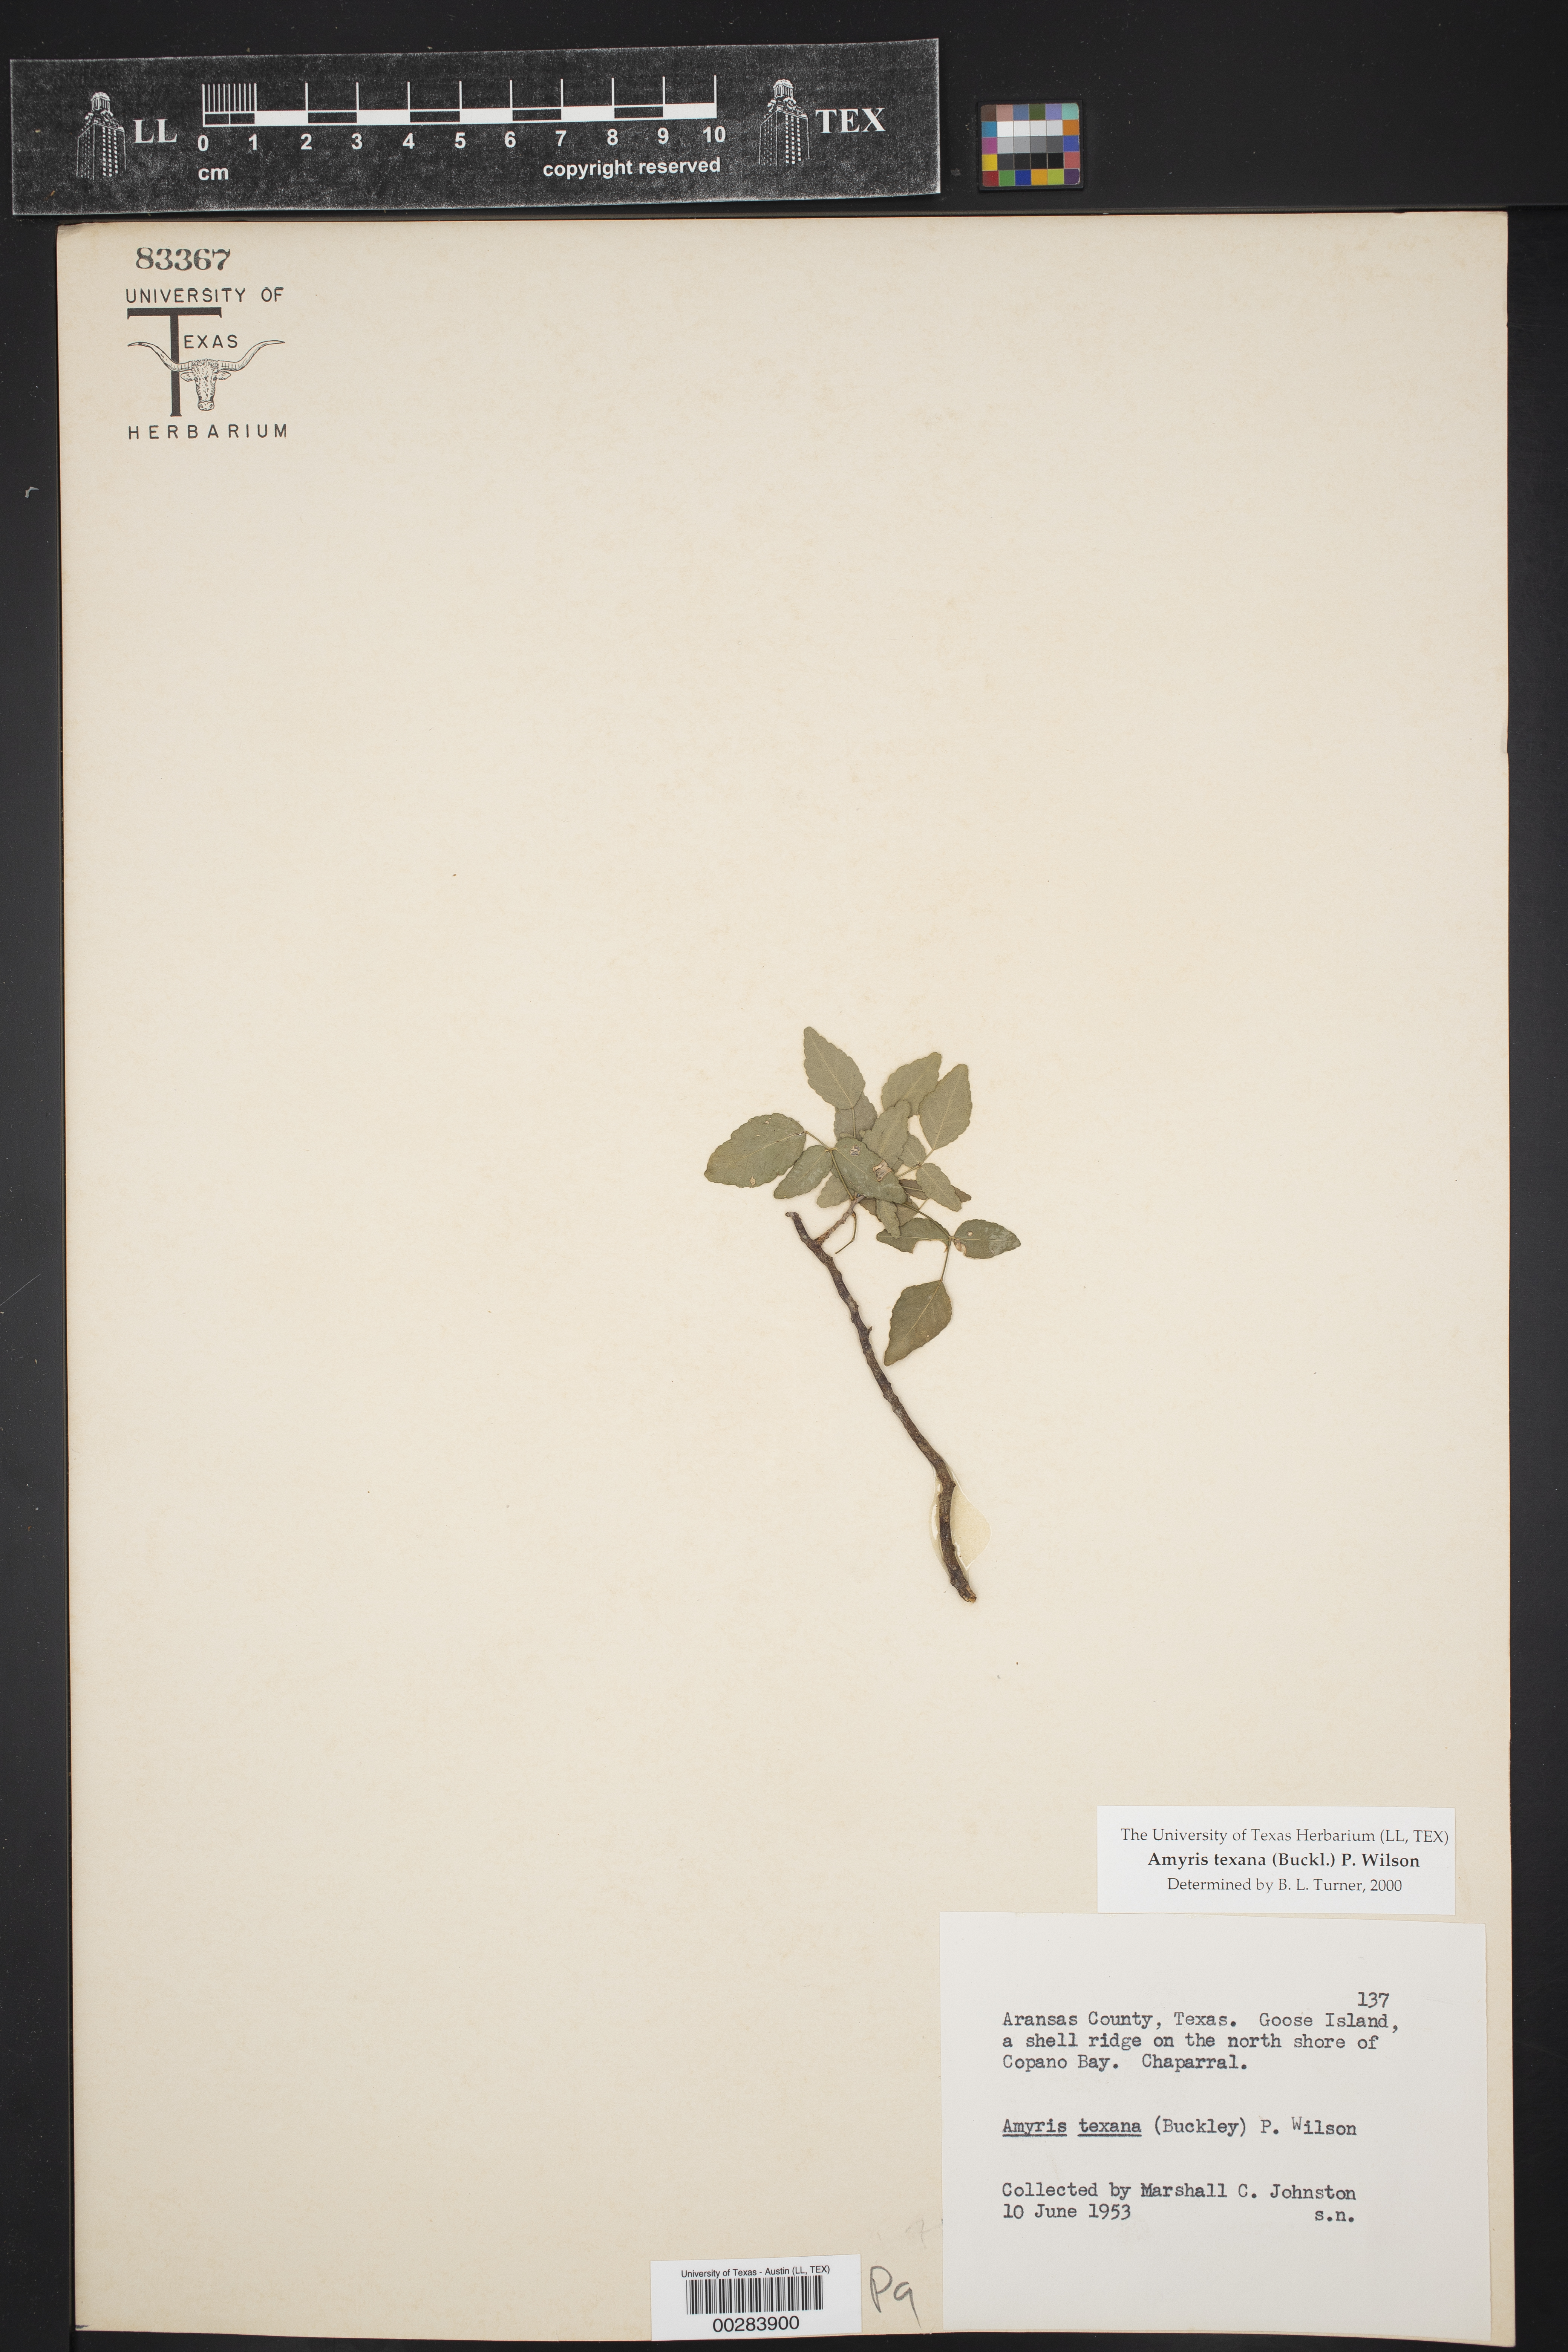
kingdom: Plantae
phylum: Tracheophyta
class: Magnoliopsida
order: Sapindales
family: Rutaceae
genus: Amyris
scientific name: Amyris texana
